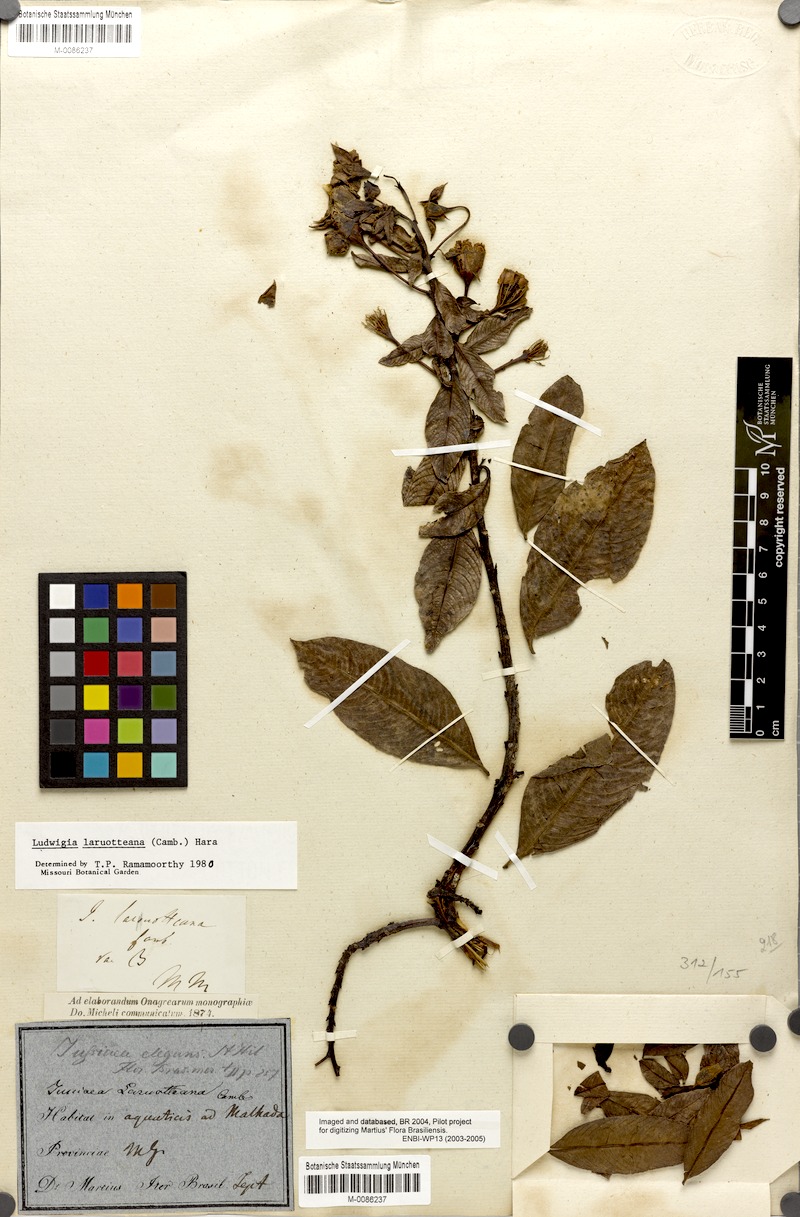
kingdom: Plantae
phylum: Tracheophyta
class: Magnoliopsida
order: Myrtales
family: Onagraceae
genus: Ludwigia
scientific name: Ludwigia laruotteana
